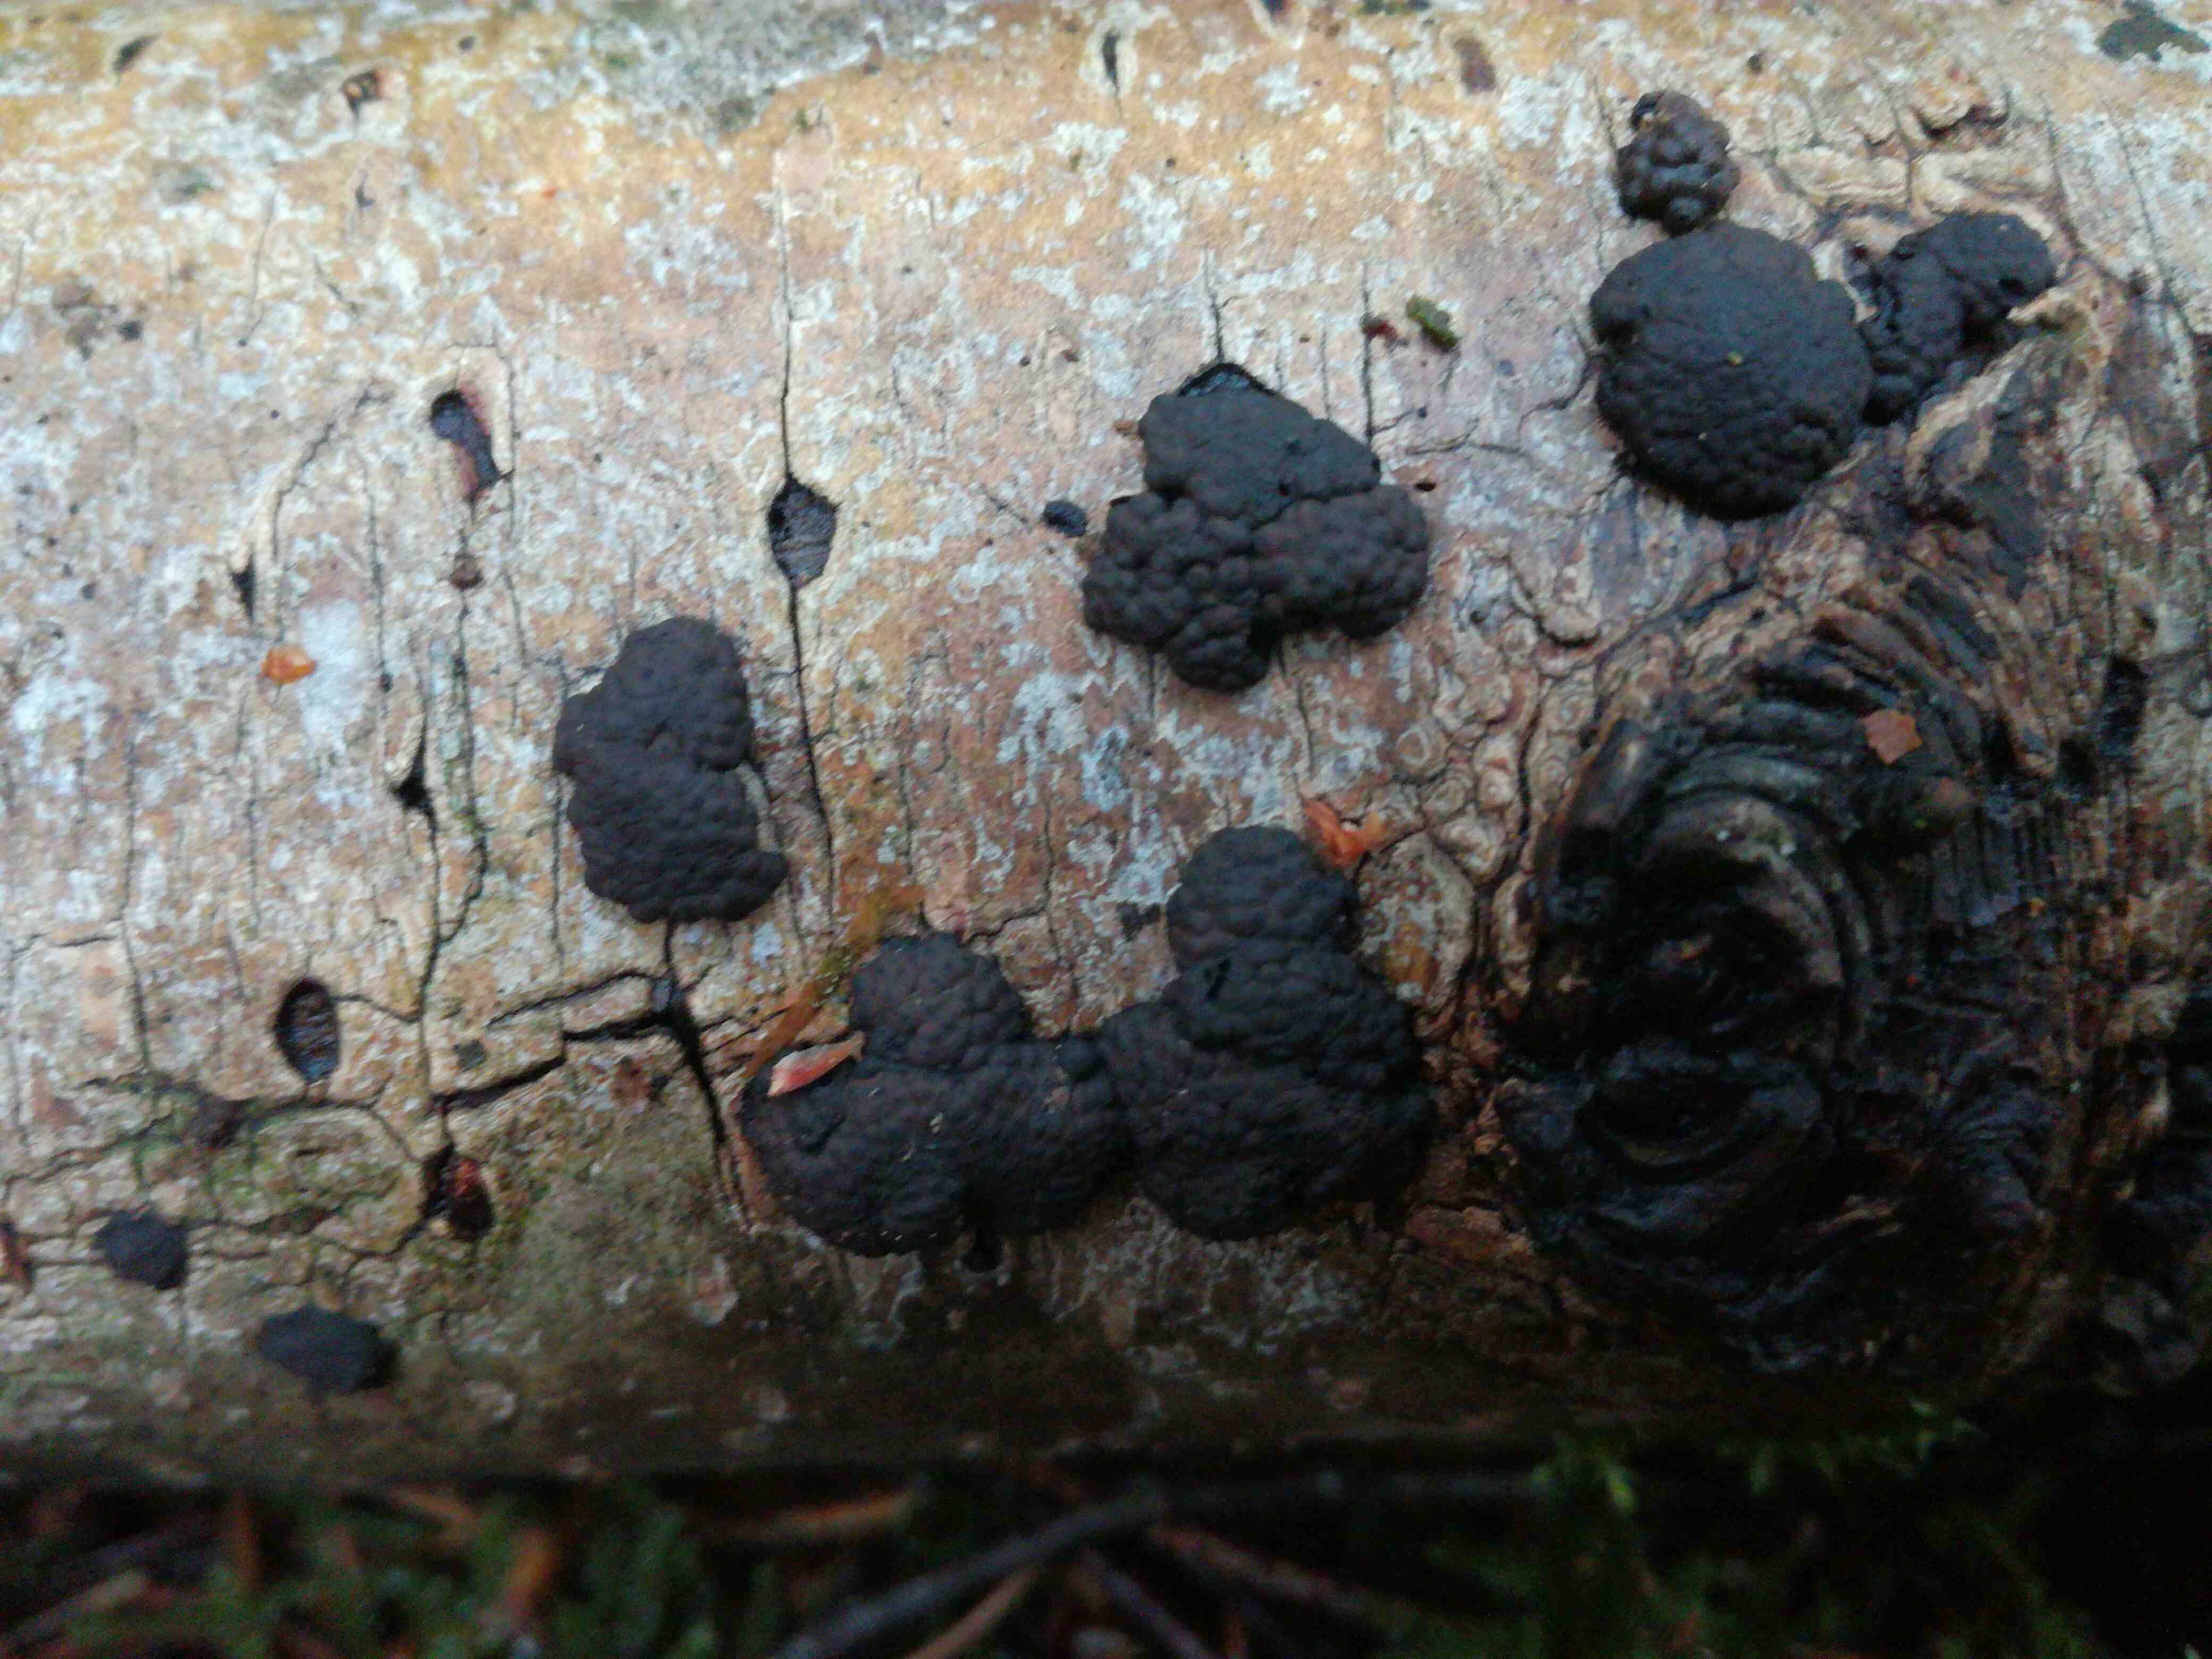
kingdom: Fungi
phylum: Ascomycota
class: Sordariomycetes
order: Xylariales
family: Hypoxylaceae
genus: Jackrogersella
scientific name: Jackrogersella multiformis
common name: foranderlig kulbær
